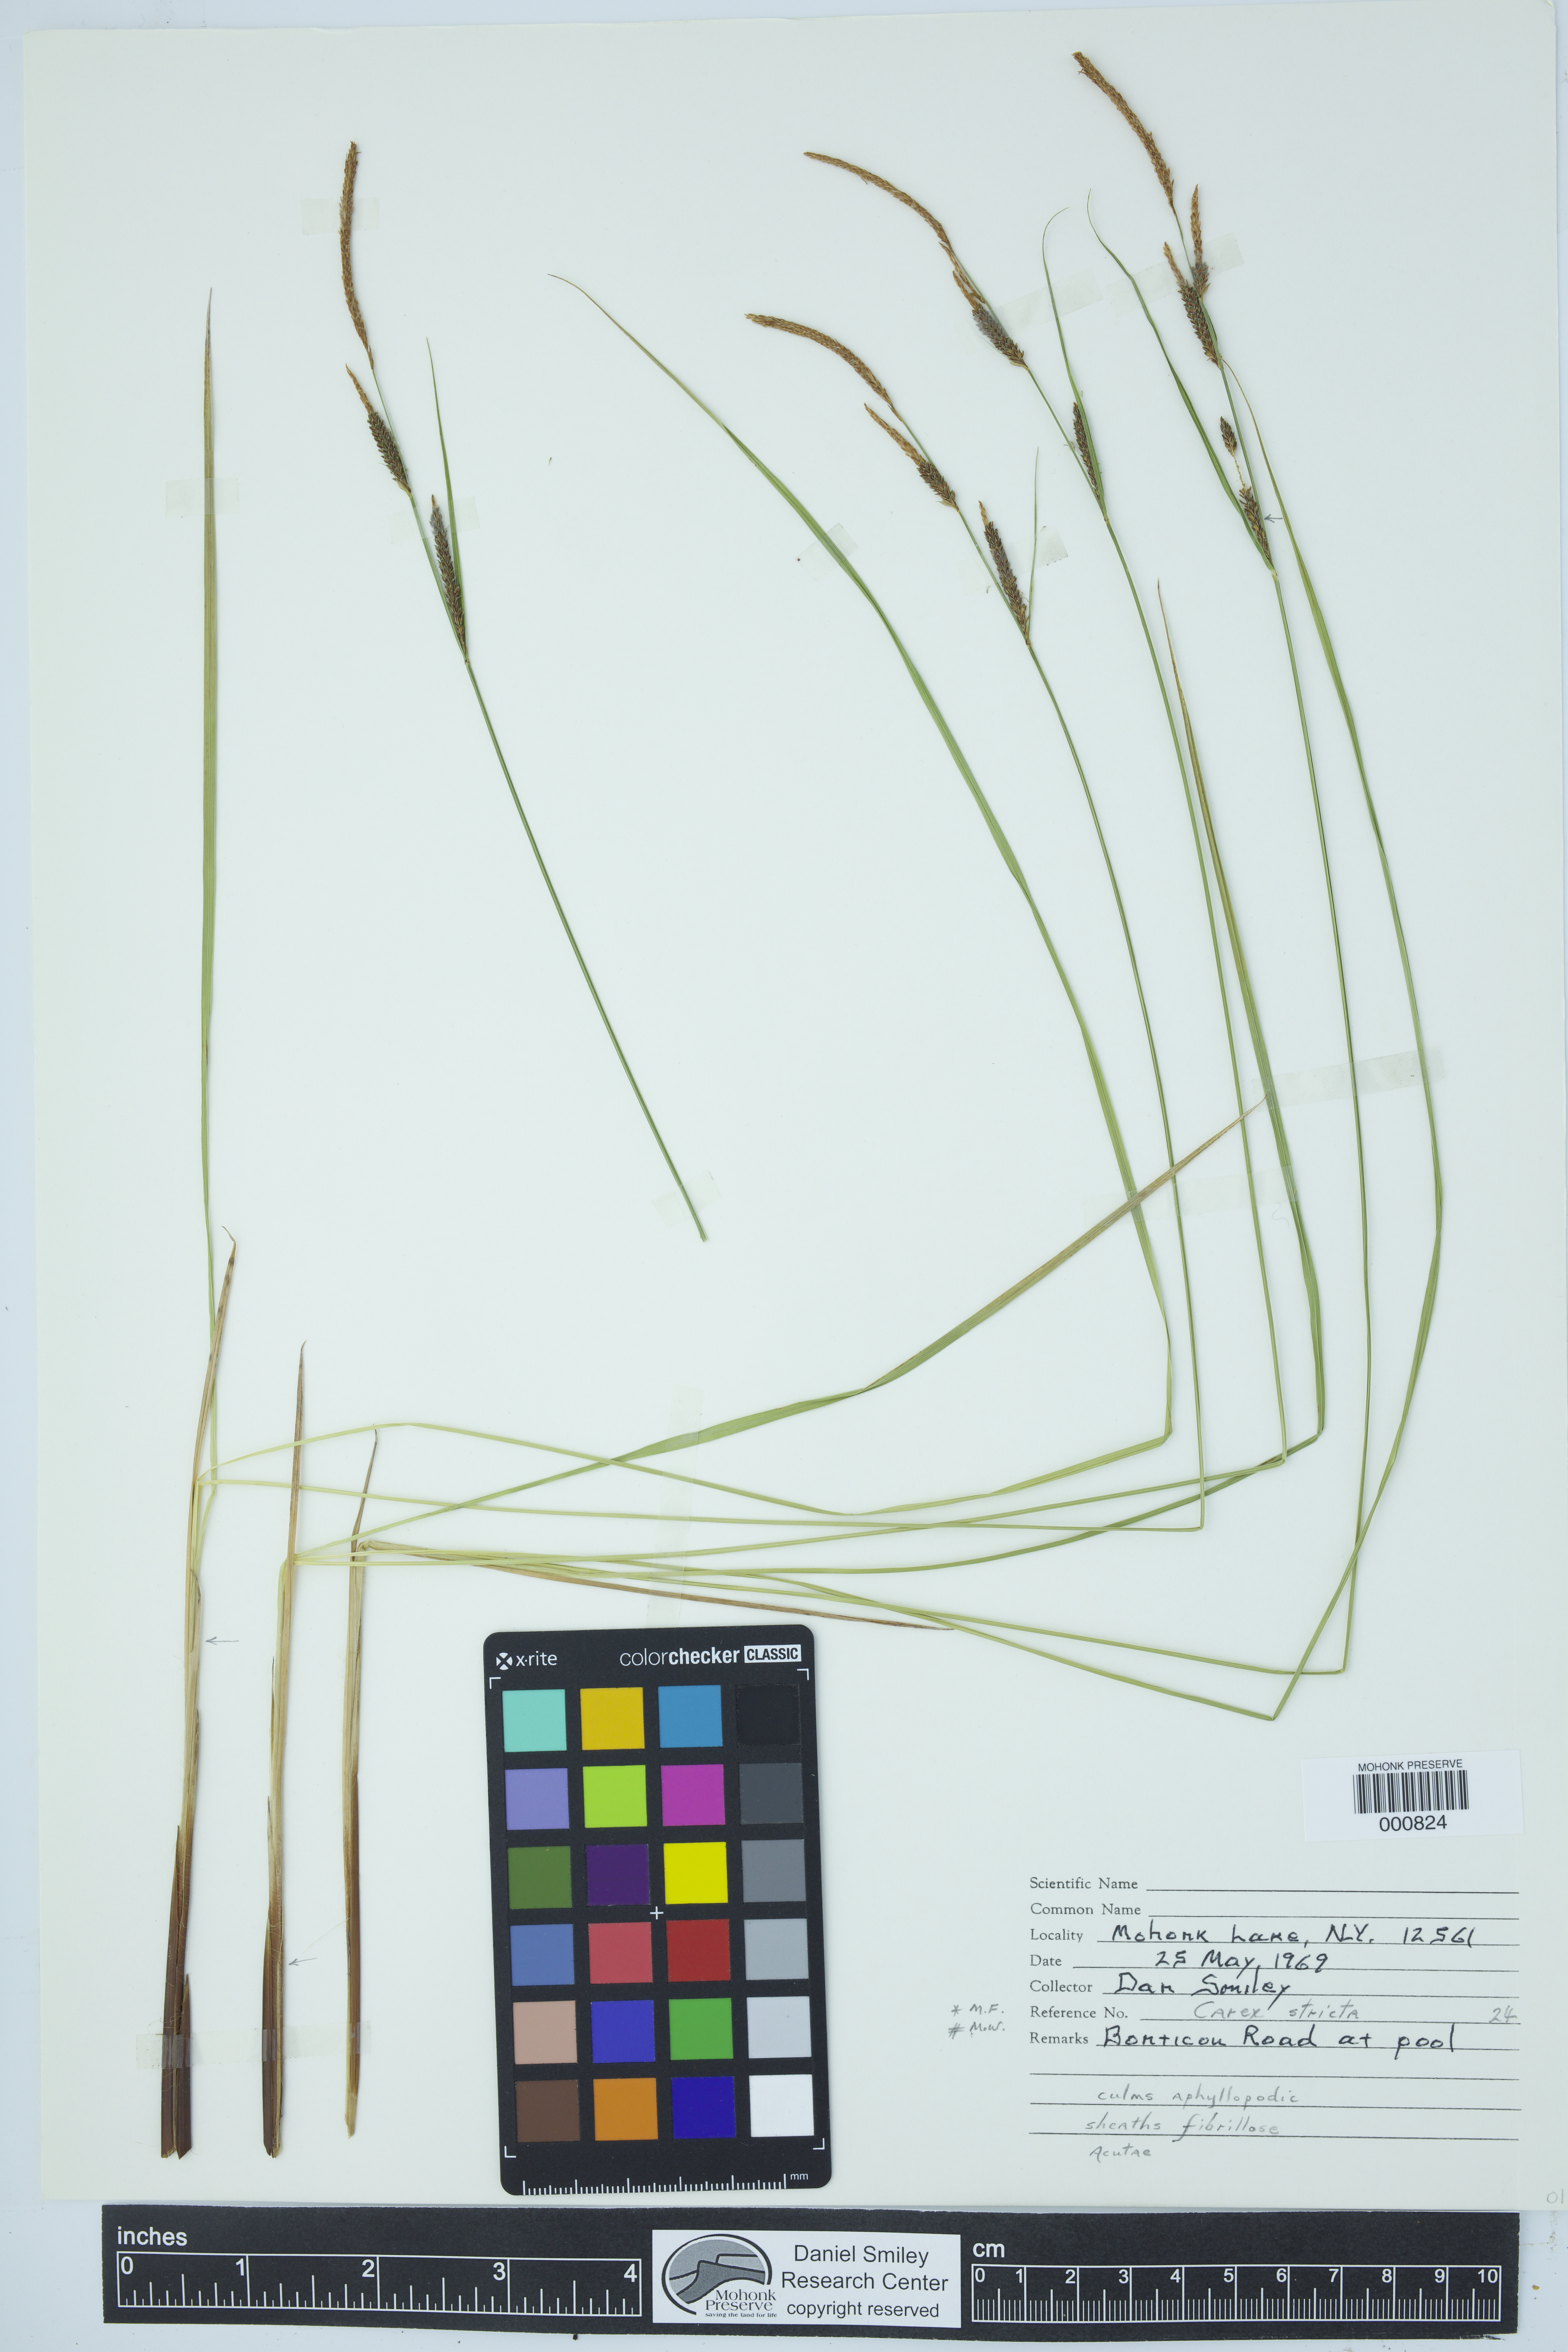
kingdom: Plantae
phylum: Tracheophyta
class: Liliopsida
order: Poales
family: Cyperaceae
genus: Carex
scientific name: Carex stricta
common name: Hummock sedge
